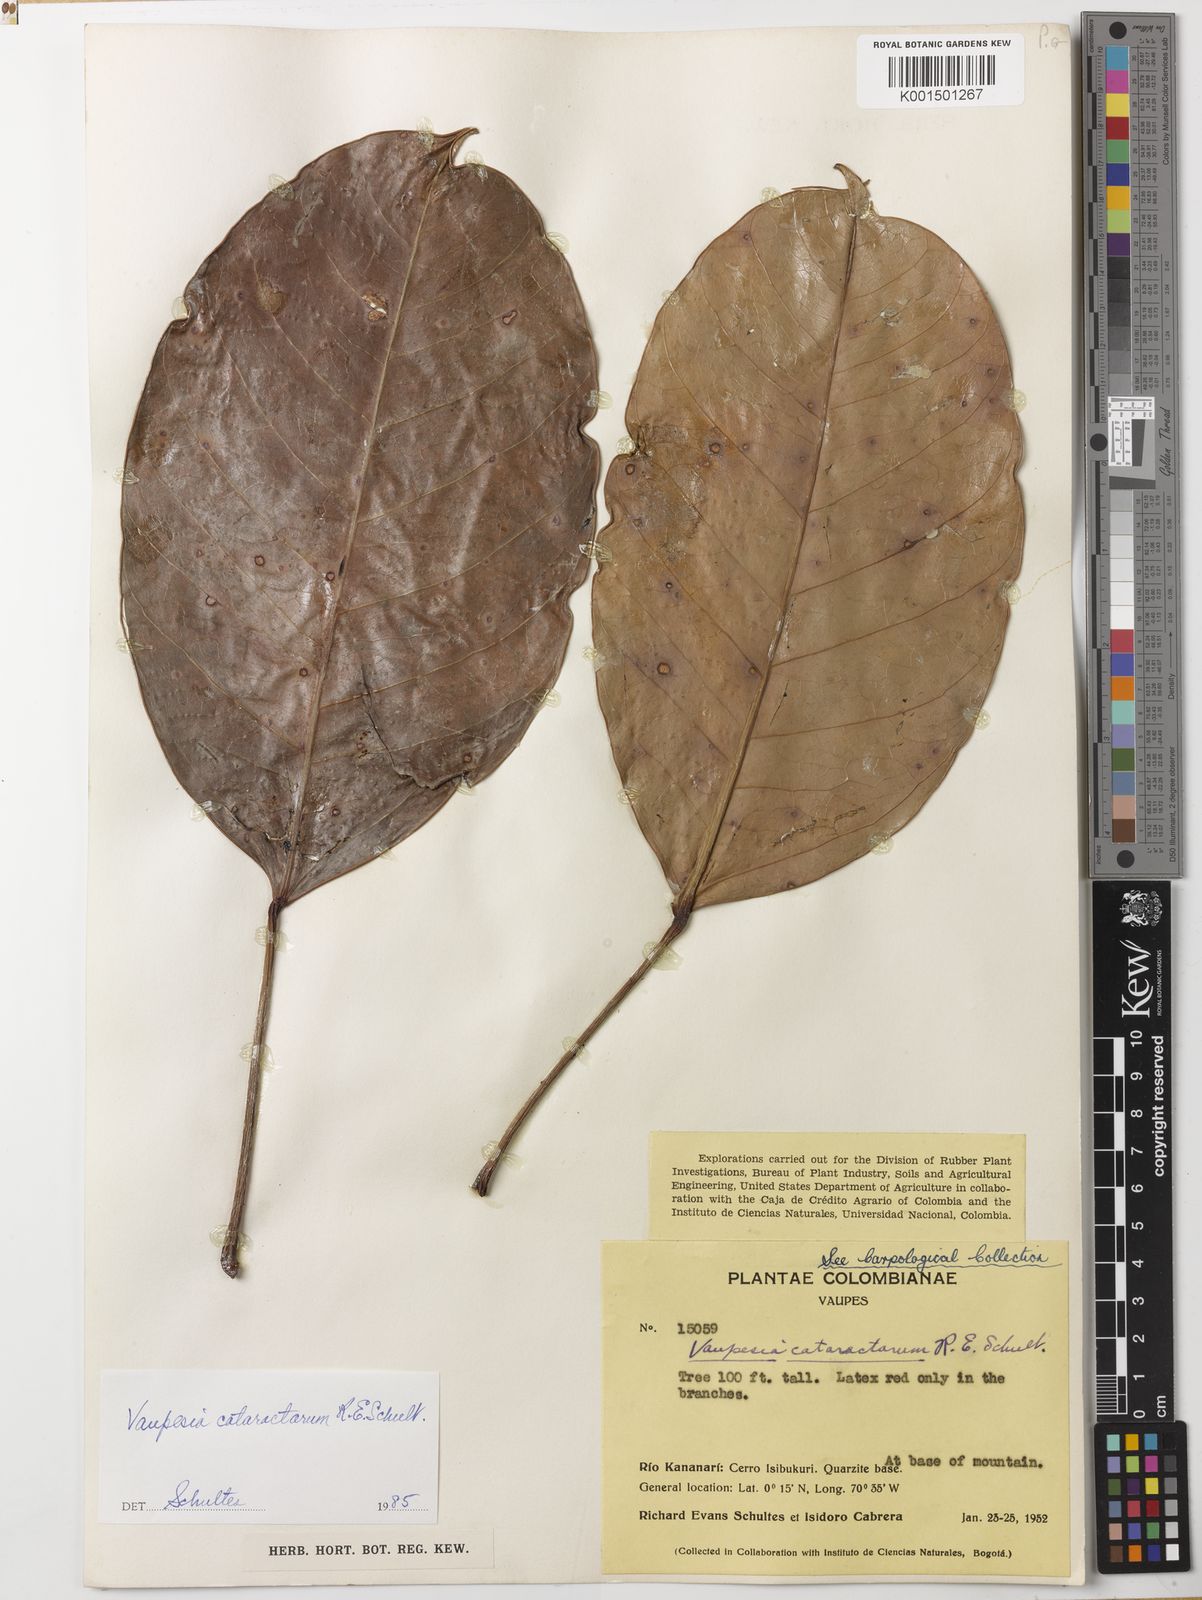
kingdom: Plantae
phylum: Tracheophyta
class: Magnoliopsida
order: Malpighiales
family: Euphorbiaceae
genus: Vaupesia
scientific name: Vaupesia cataractarum
